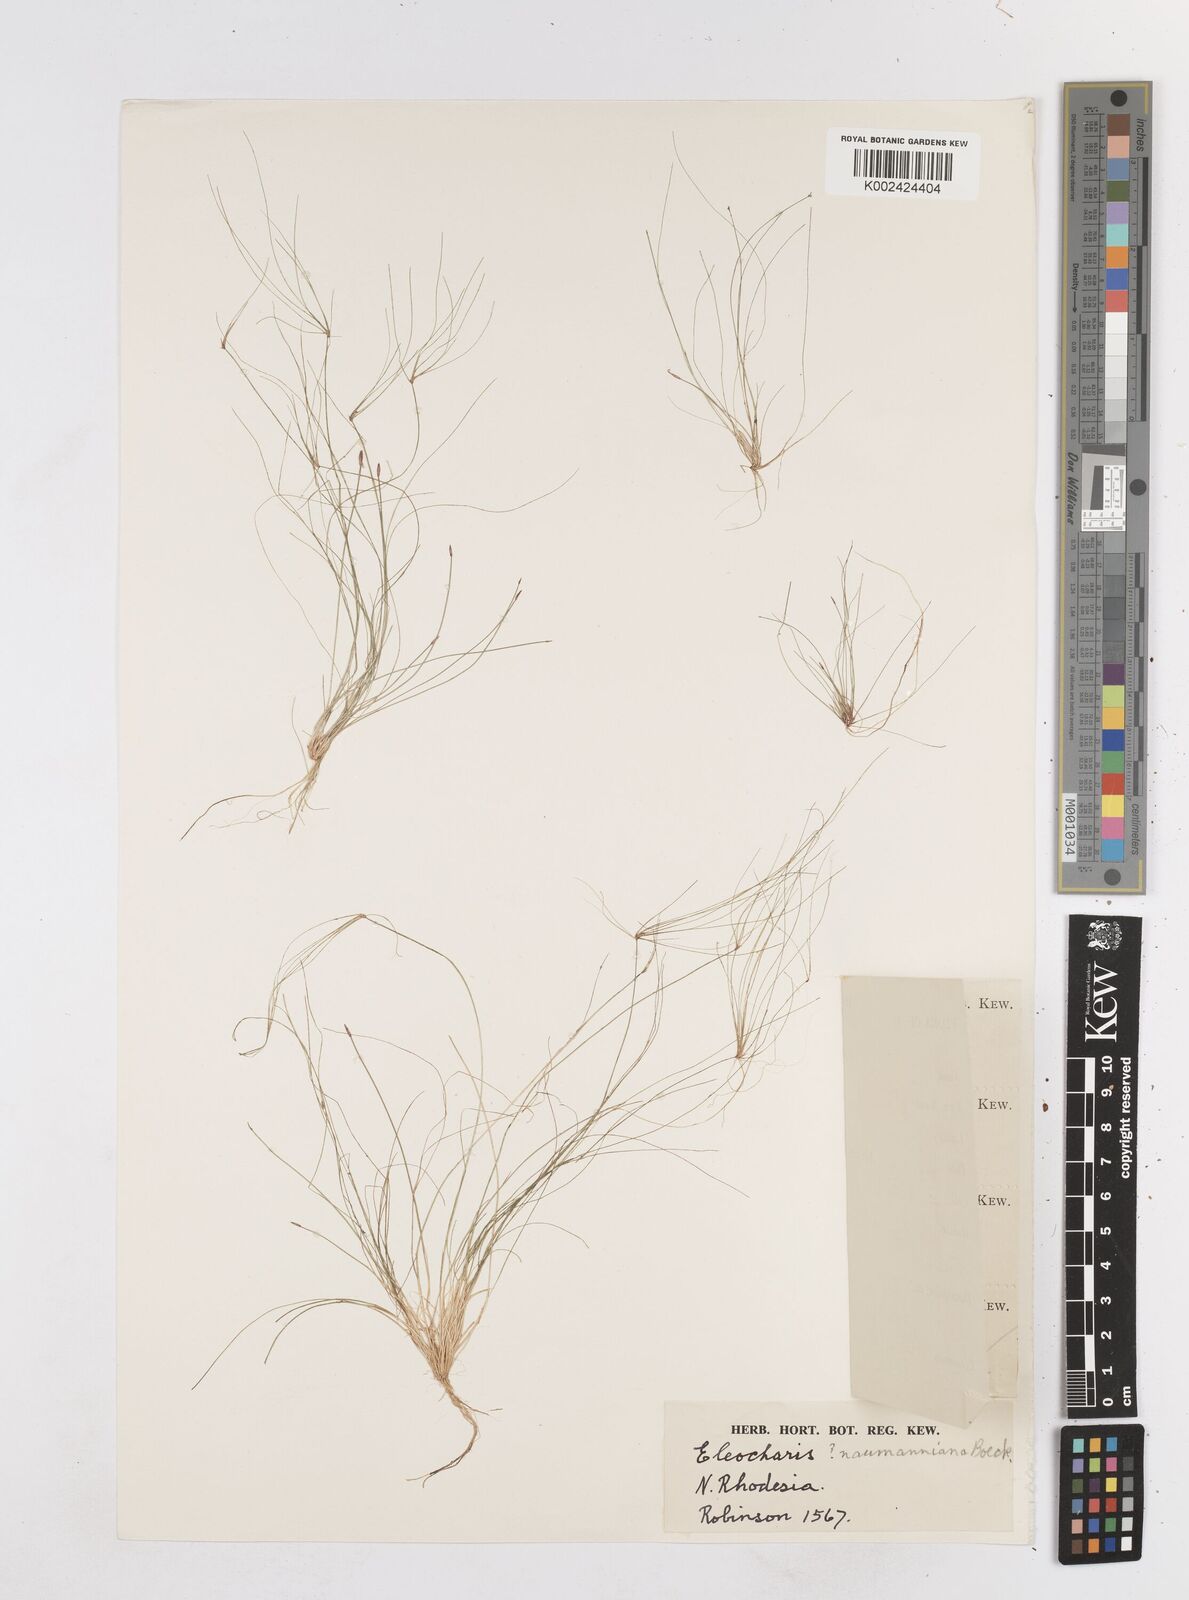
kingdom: Plantae
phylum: Tracheophyta
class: Liliopsida
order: Poales
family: Cyperaceae
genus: Eleocharis
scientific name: Eleocharis naumanniana
